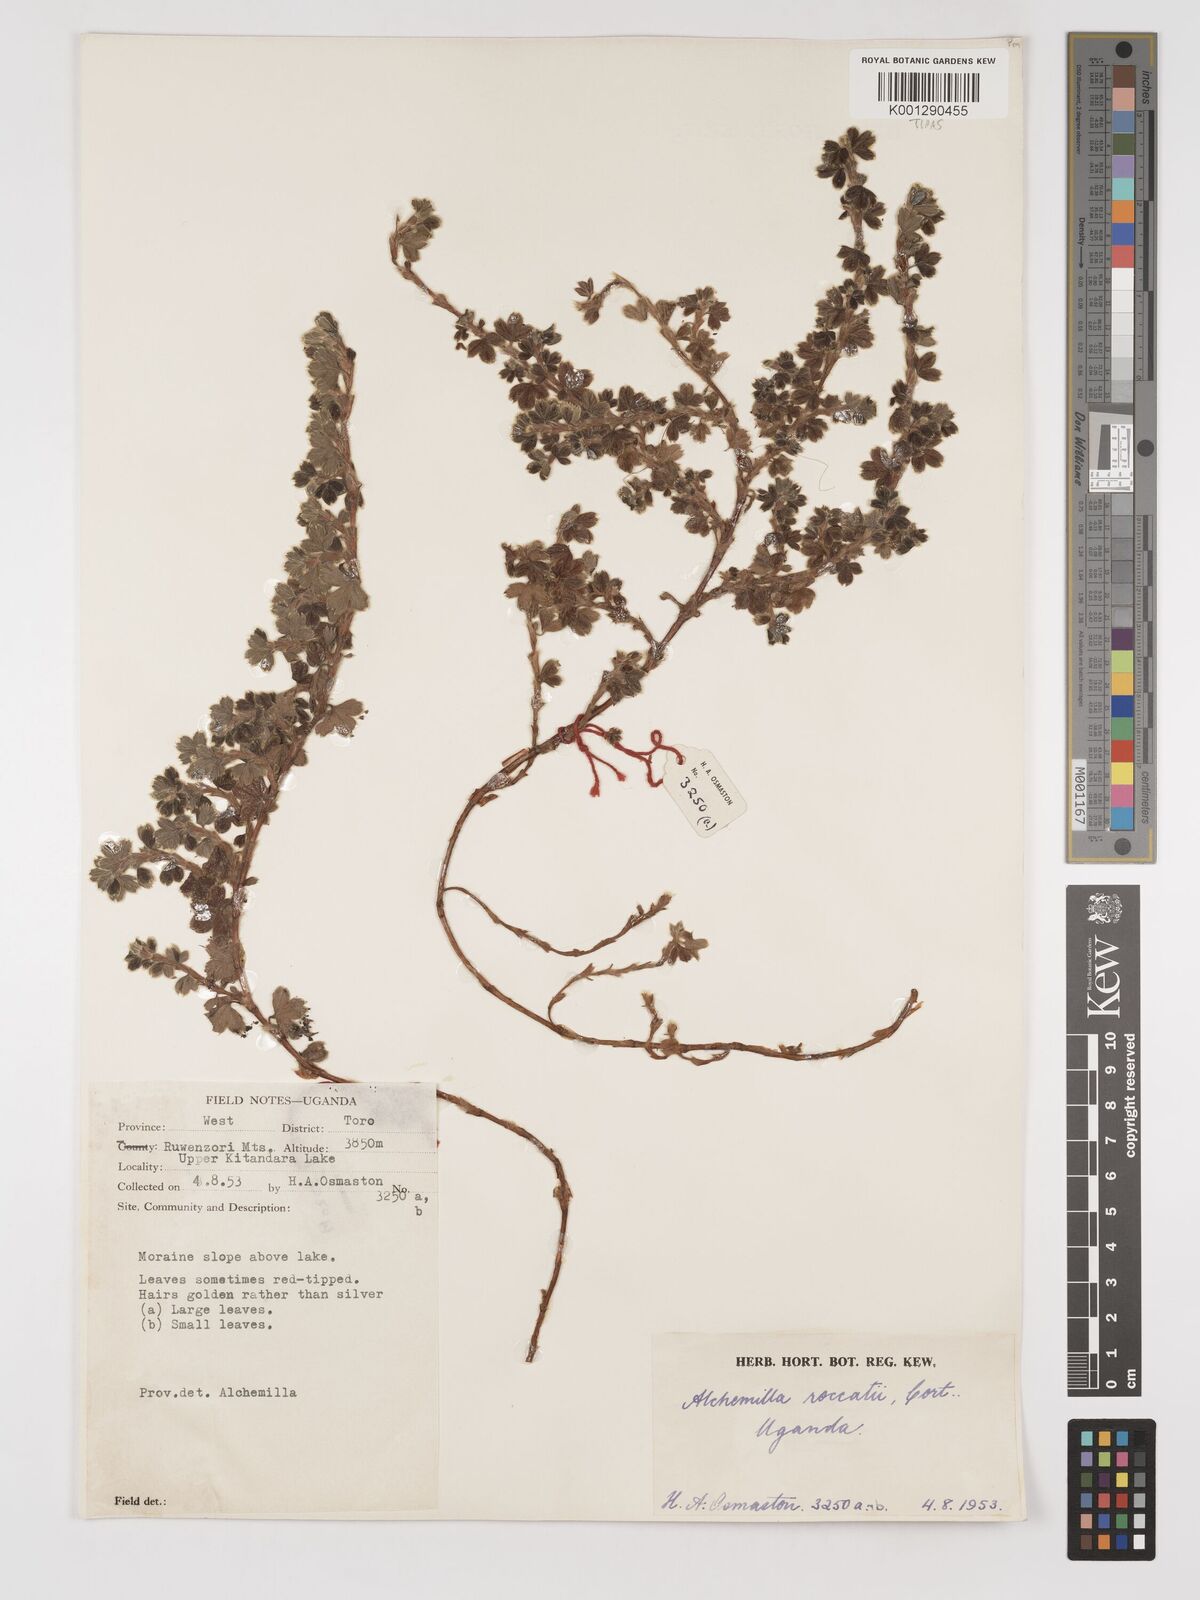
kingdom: Plantae
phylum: Tracheophyta
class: Magnoliopsida
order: Rosales
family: Rosaceae
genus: Alchemilla
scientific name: Alchemilla roccatii
